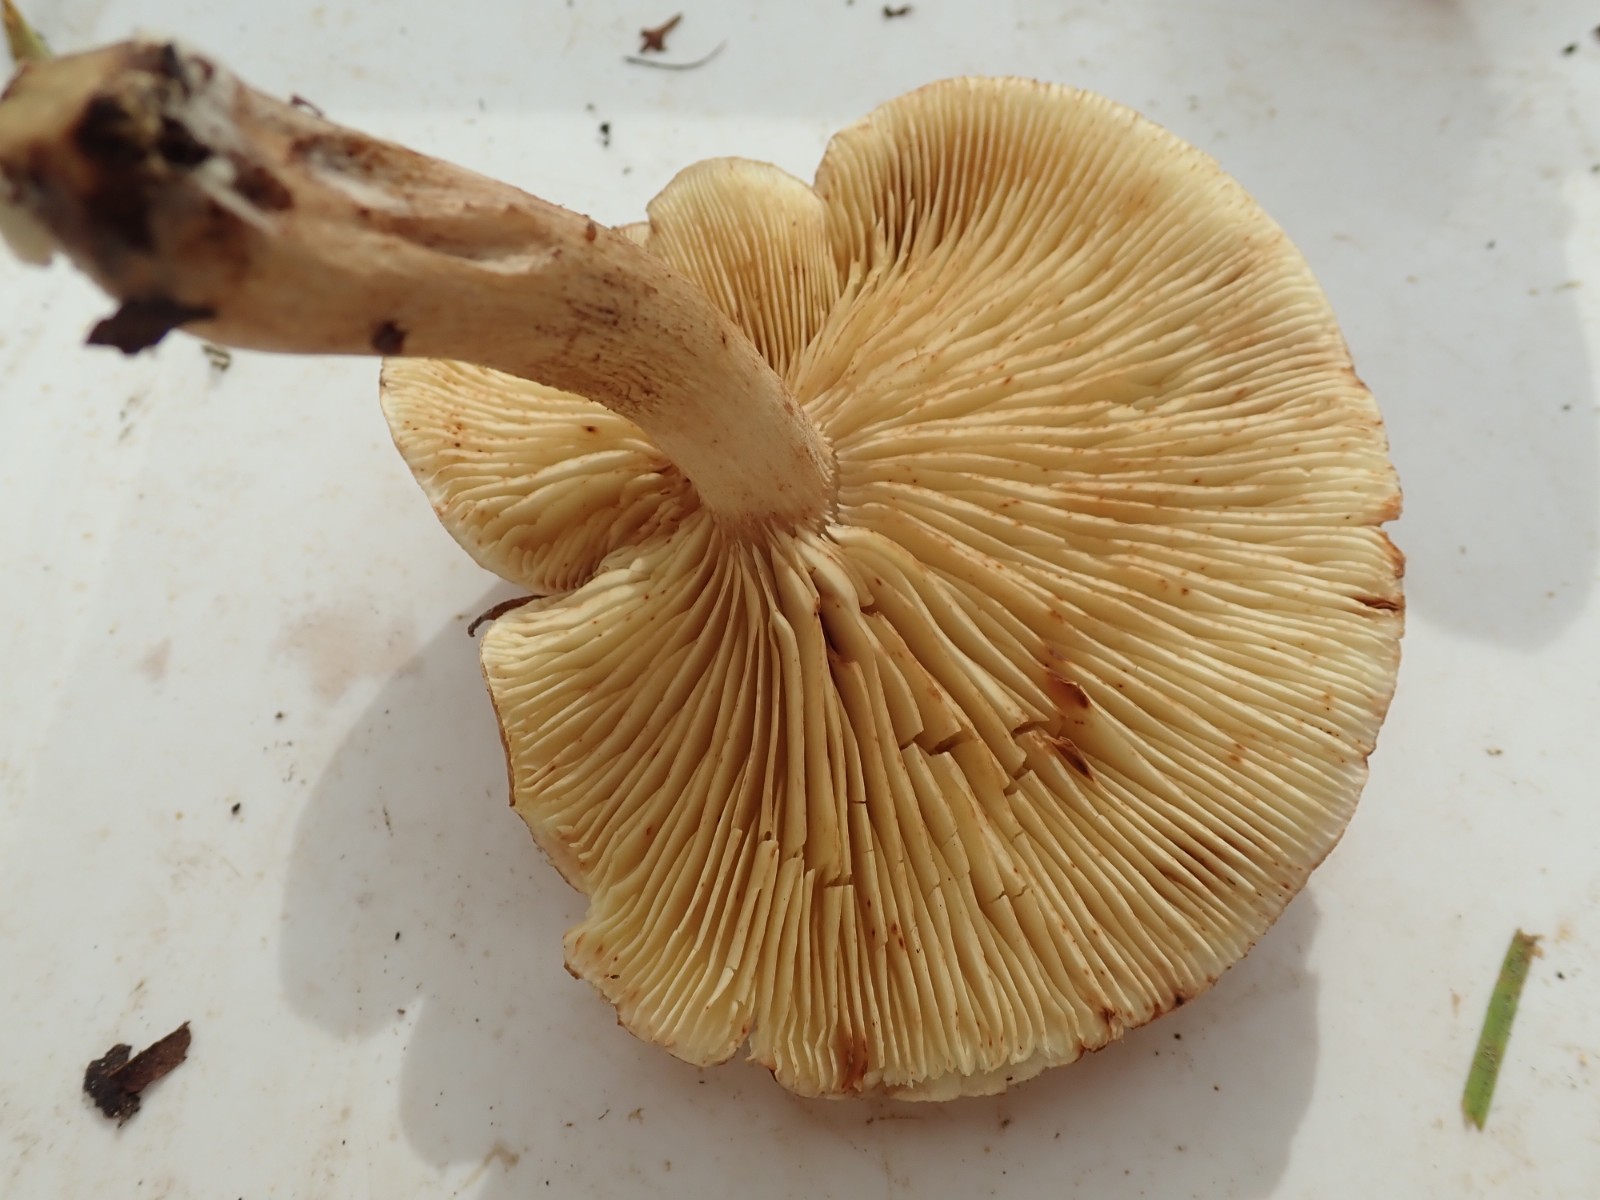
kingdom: Fungi
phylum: Basidiomycota
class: Agaricomycetes
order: Agaricales
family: Tricholomataceae
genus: Tricholoma
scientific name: Tricholoma
